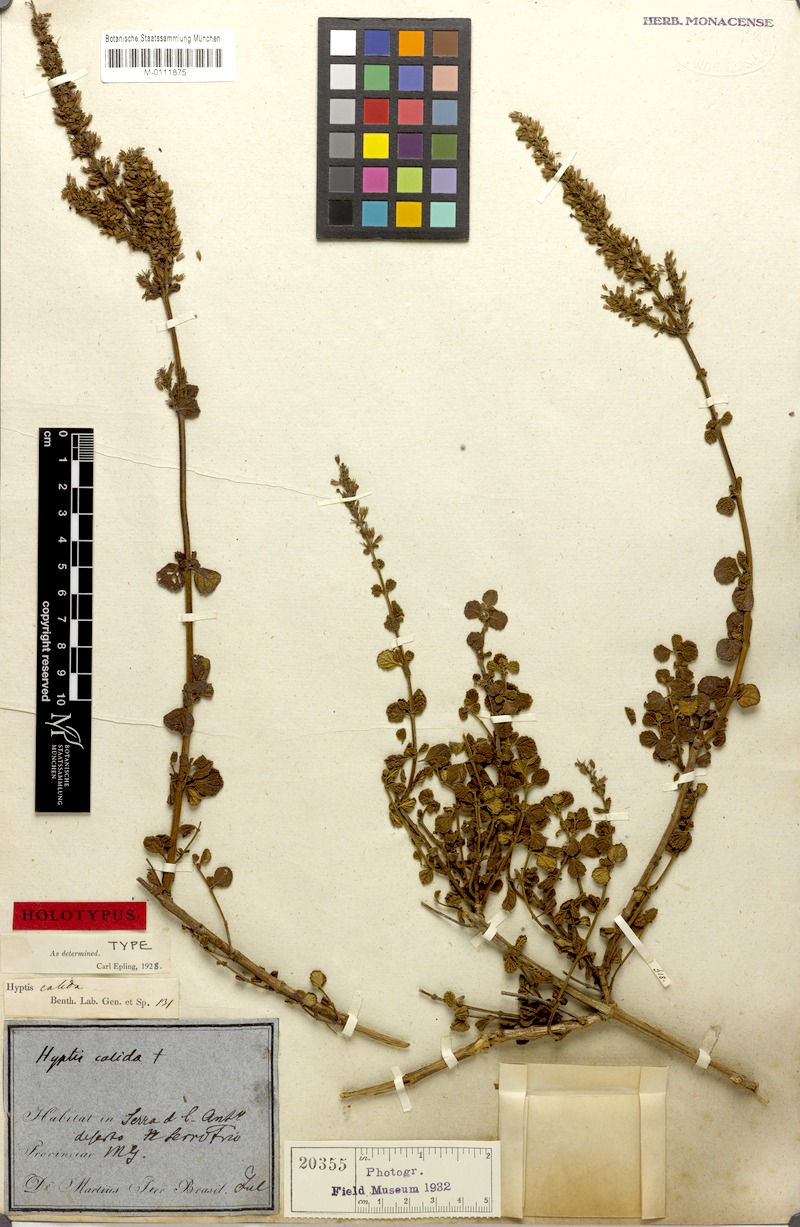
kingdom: Plantae
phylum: Tracheophyta
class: Magnoliopsida
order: Lamiales
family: Lamiaceae
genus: Leptohyptis
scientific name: Leptohyptis calida
